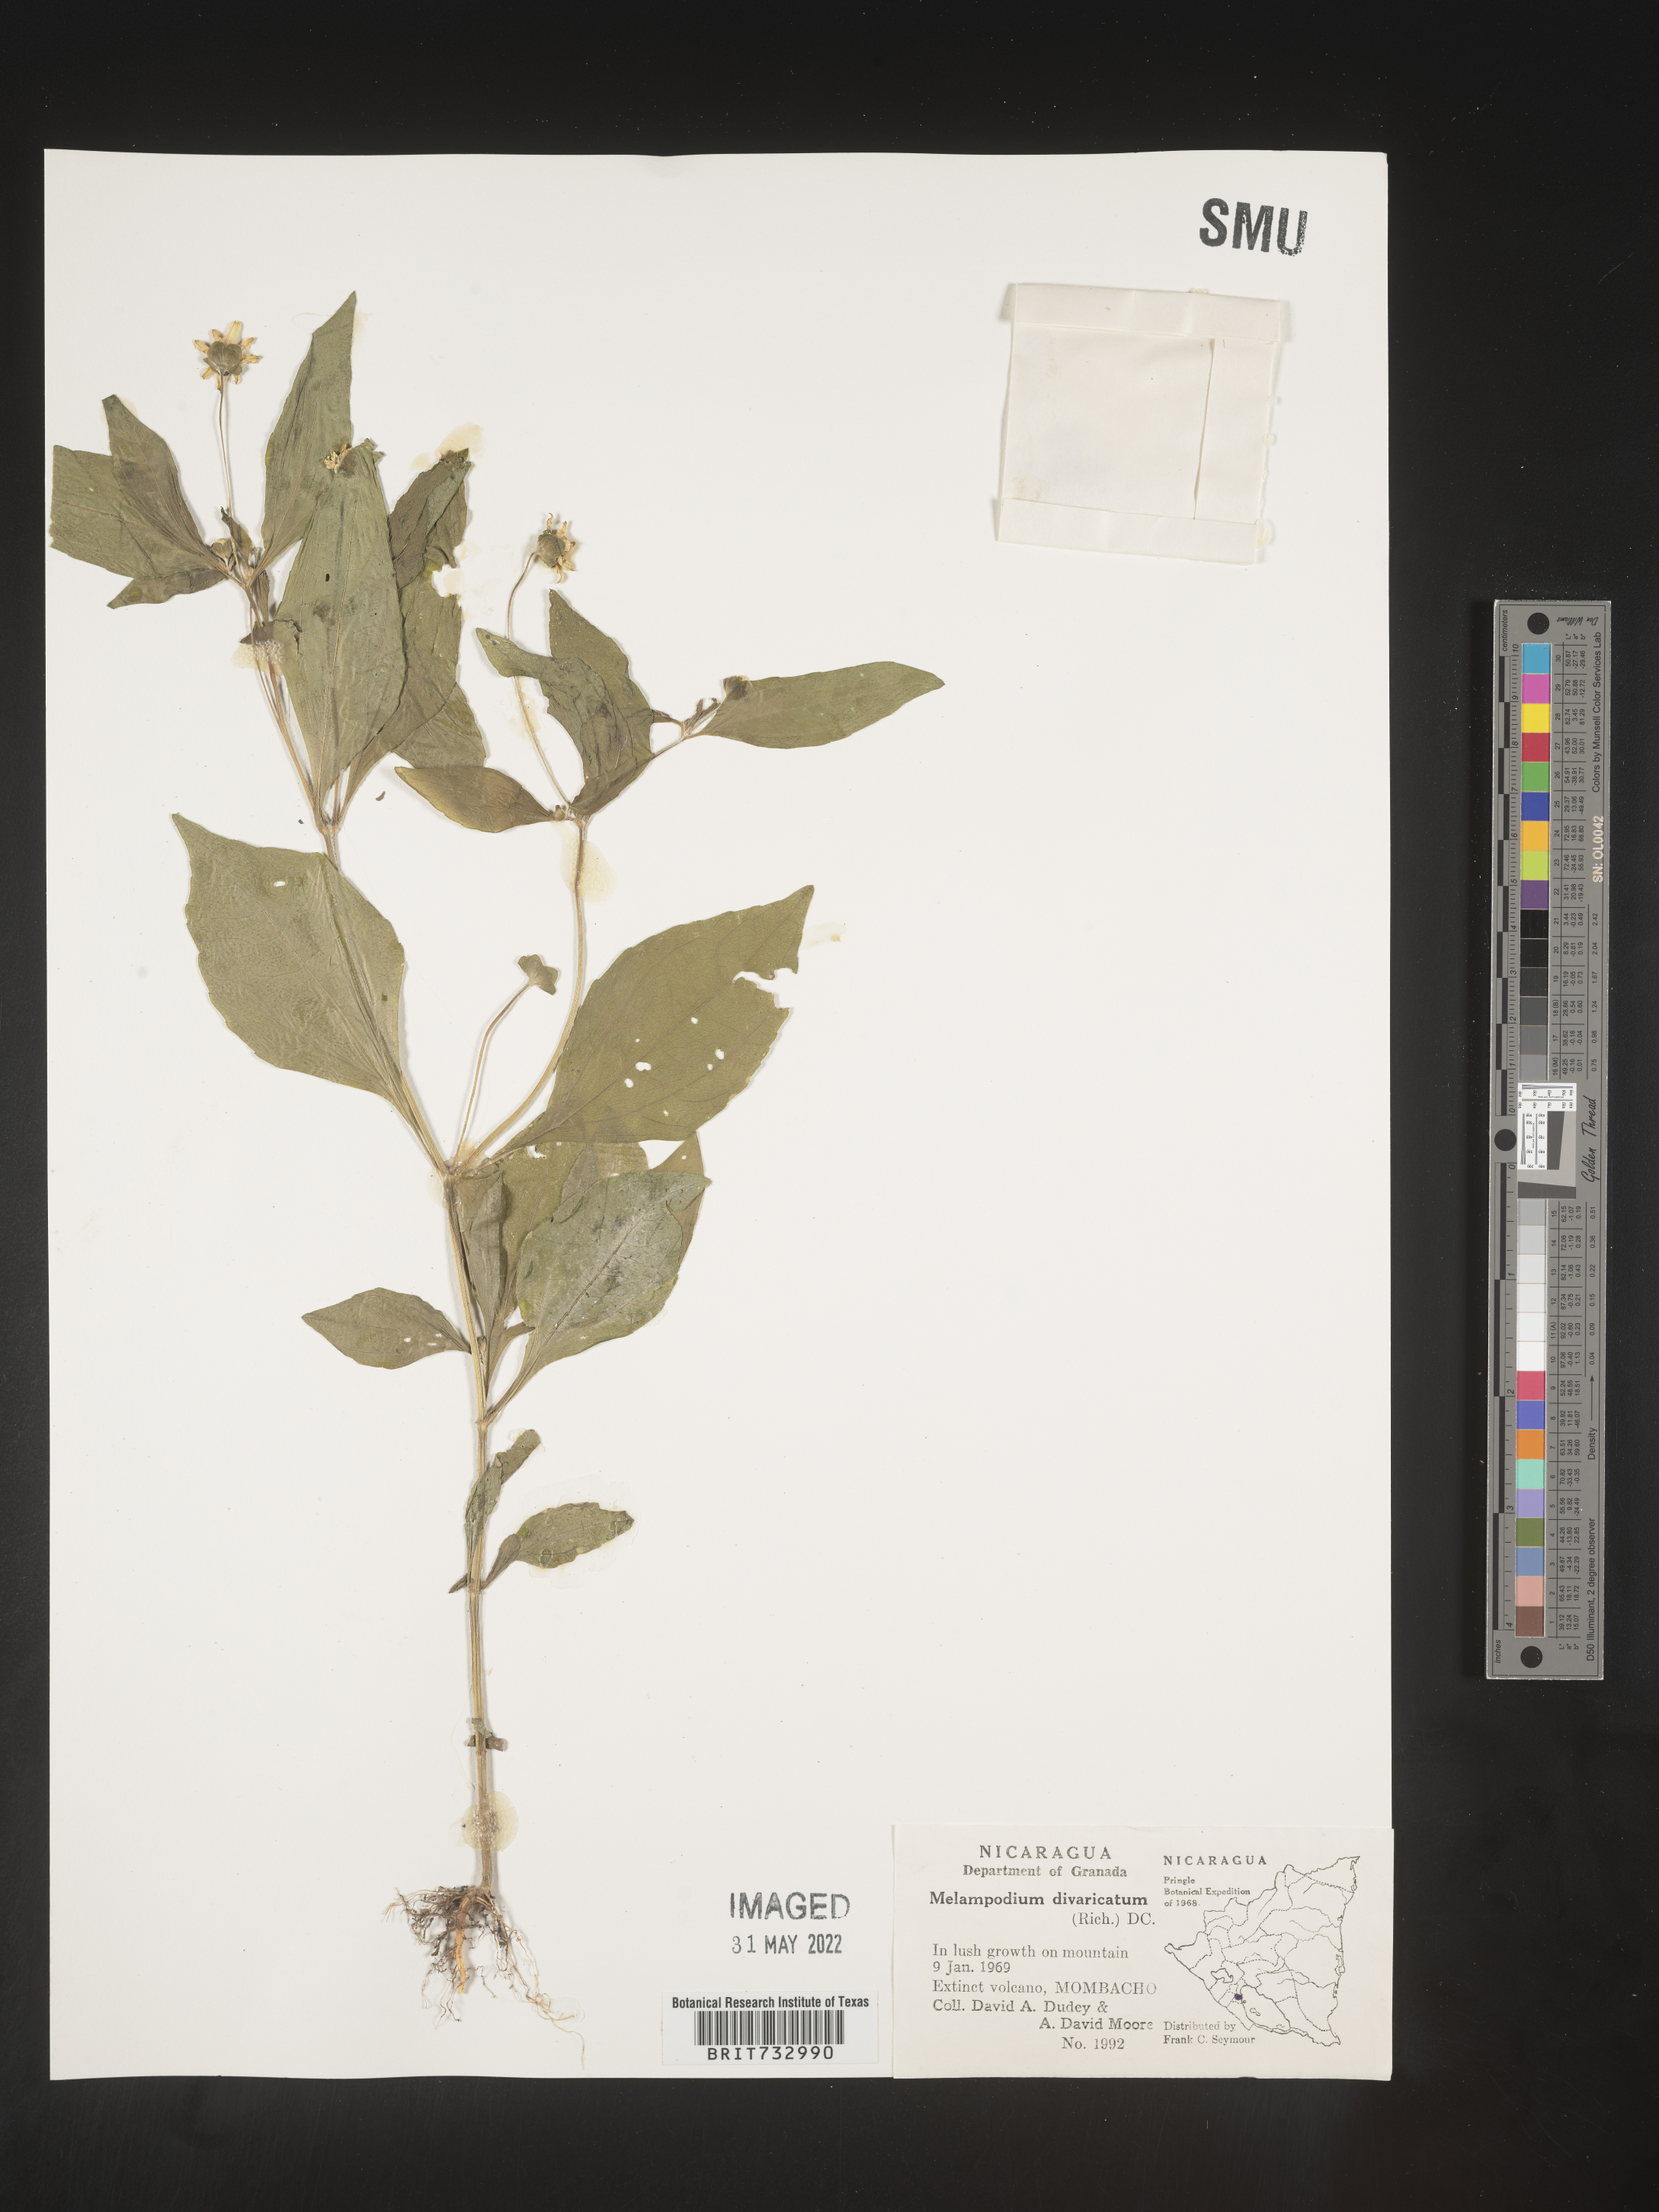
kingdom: Plantae
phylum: Tracheophyta
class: Magnoliopsida
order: Asterales
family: Asteraceae
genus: Melampodium
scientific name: Melampodium
